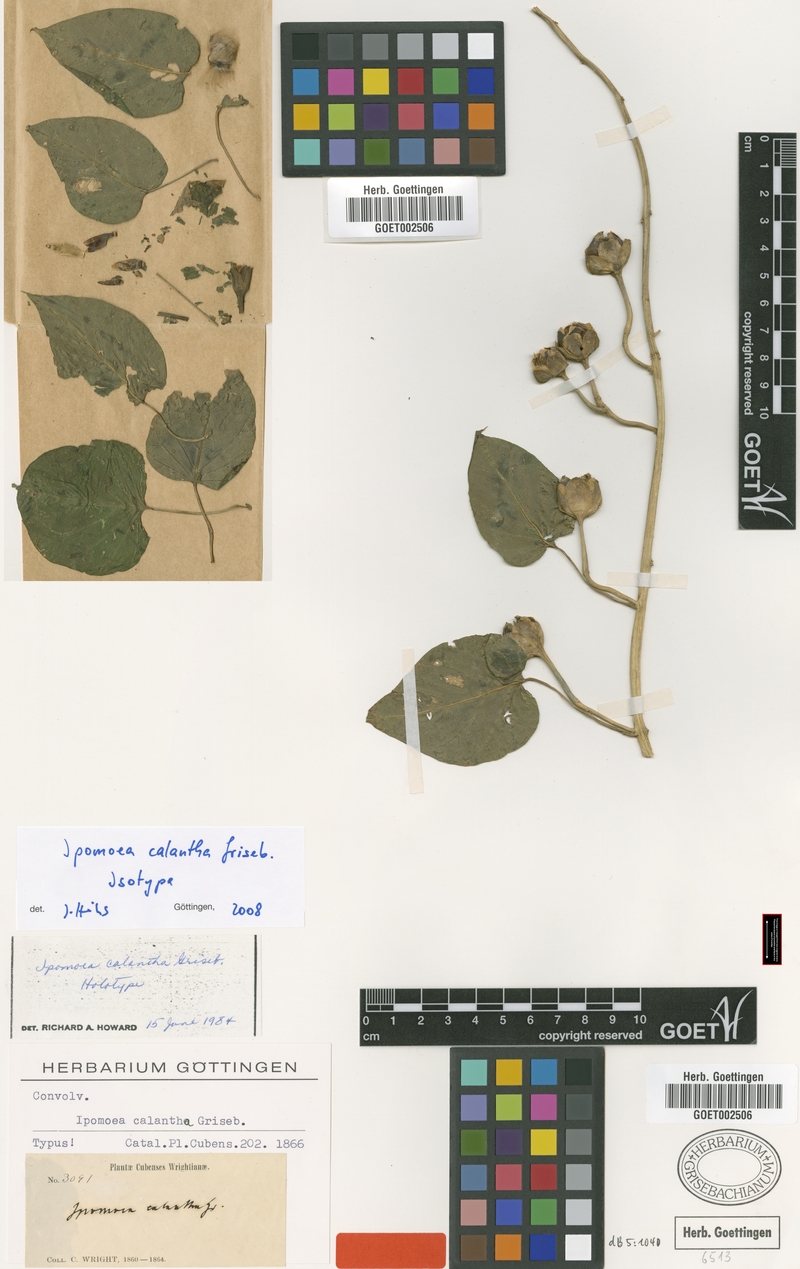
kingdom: Plantae
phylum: Tracheophyta
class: Magnoliopsida
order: Solanales
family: Convolvulaceae
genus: Ipomoea
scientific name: Ipomoea jalapa
